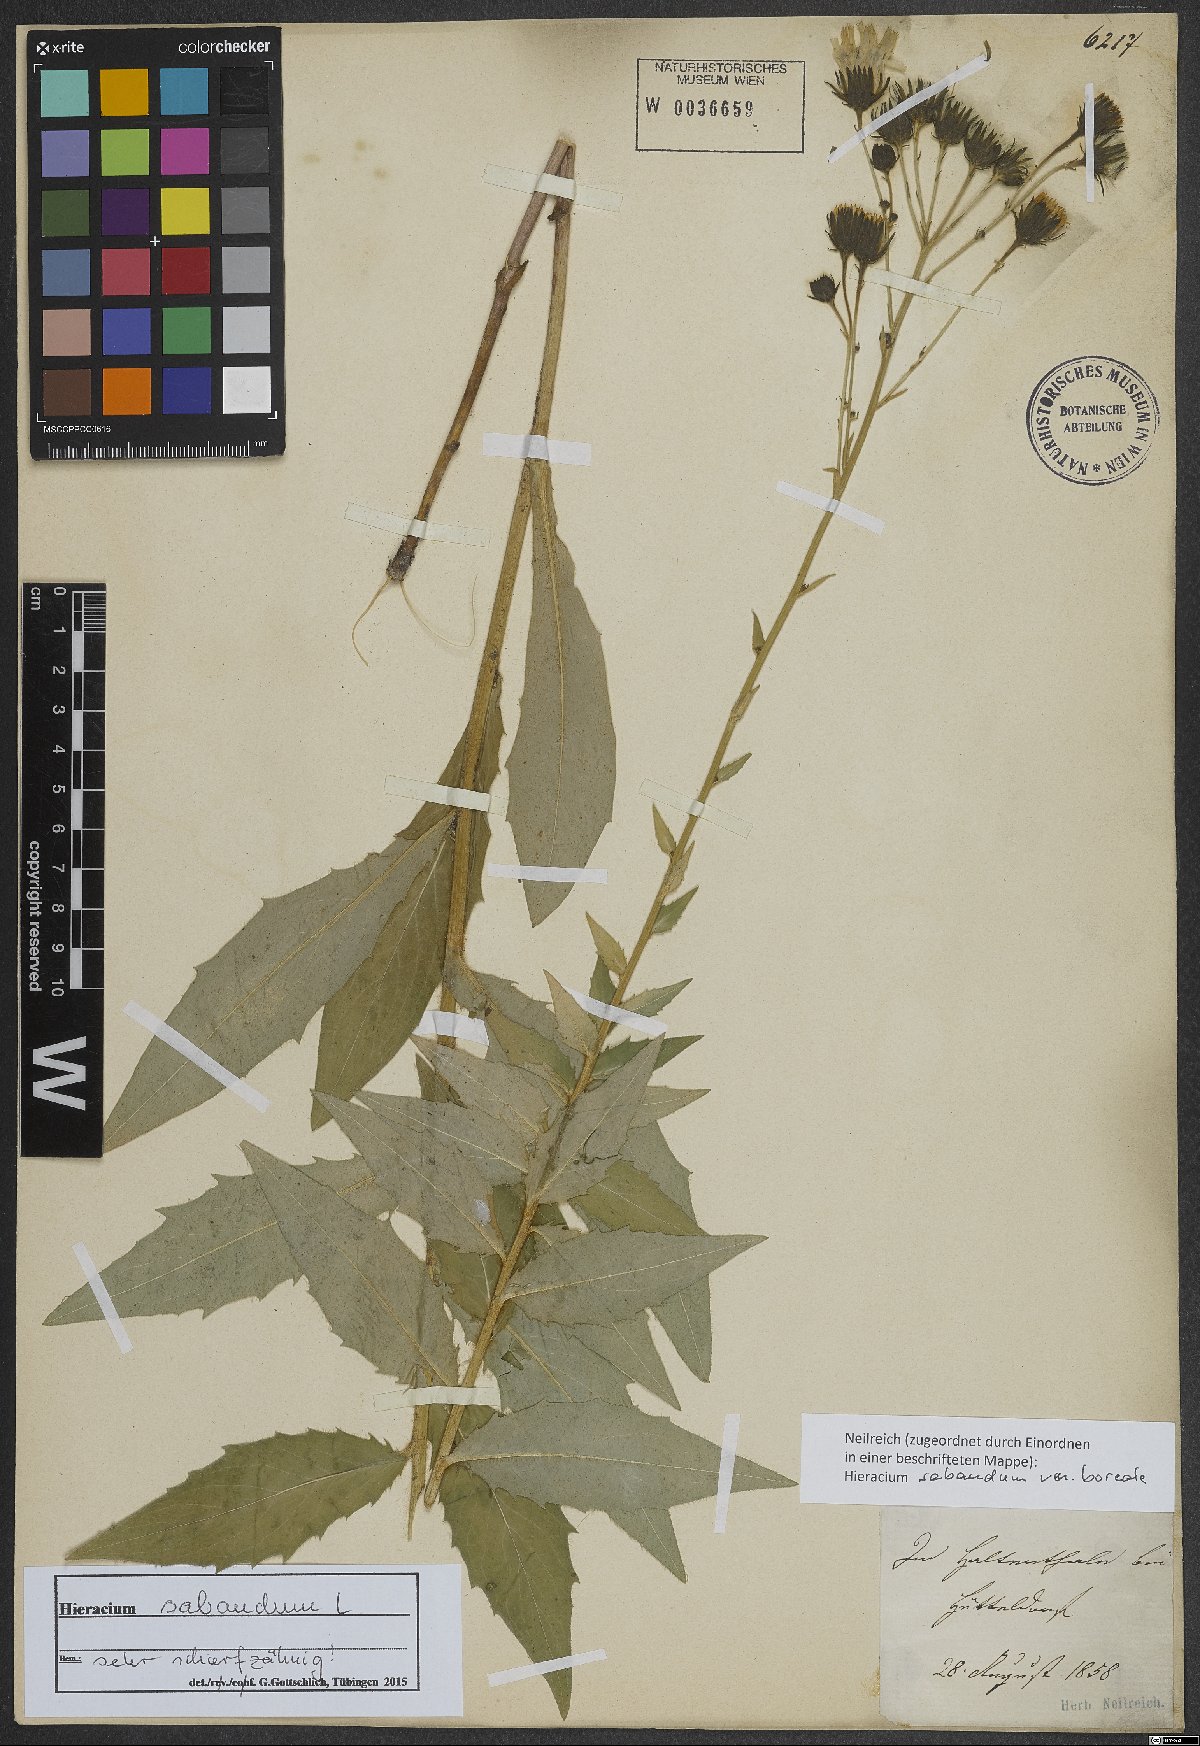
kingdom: Plantae
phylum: Tracheophyta
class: Magnoliopsida
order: Asterales
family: Asteraceae
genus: Hieracium
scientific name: Hieracium sabaudum
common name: New england hawkweed
